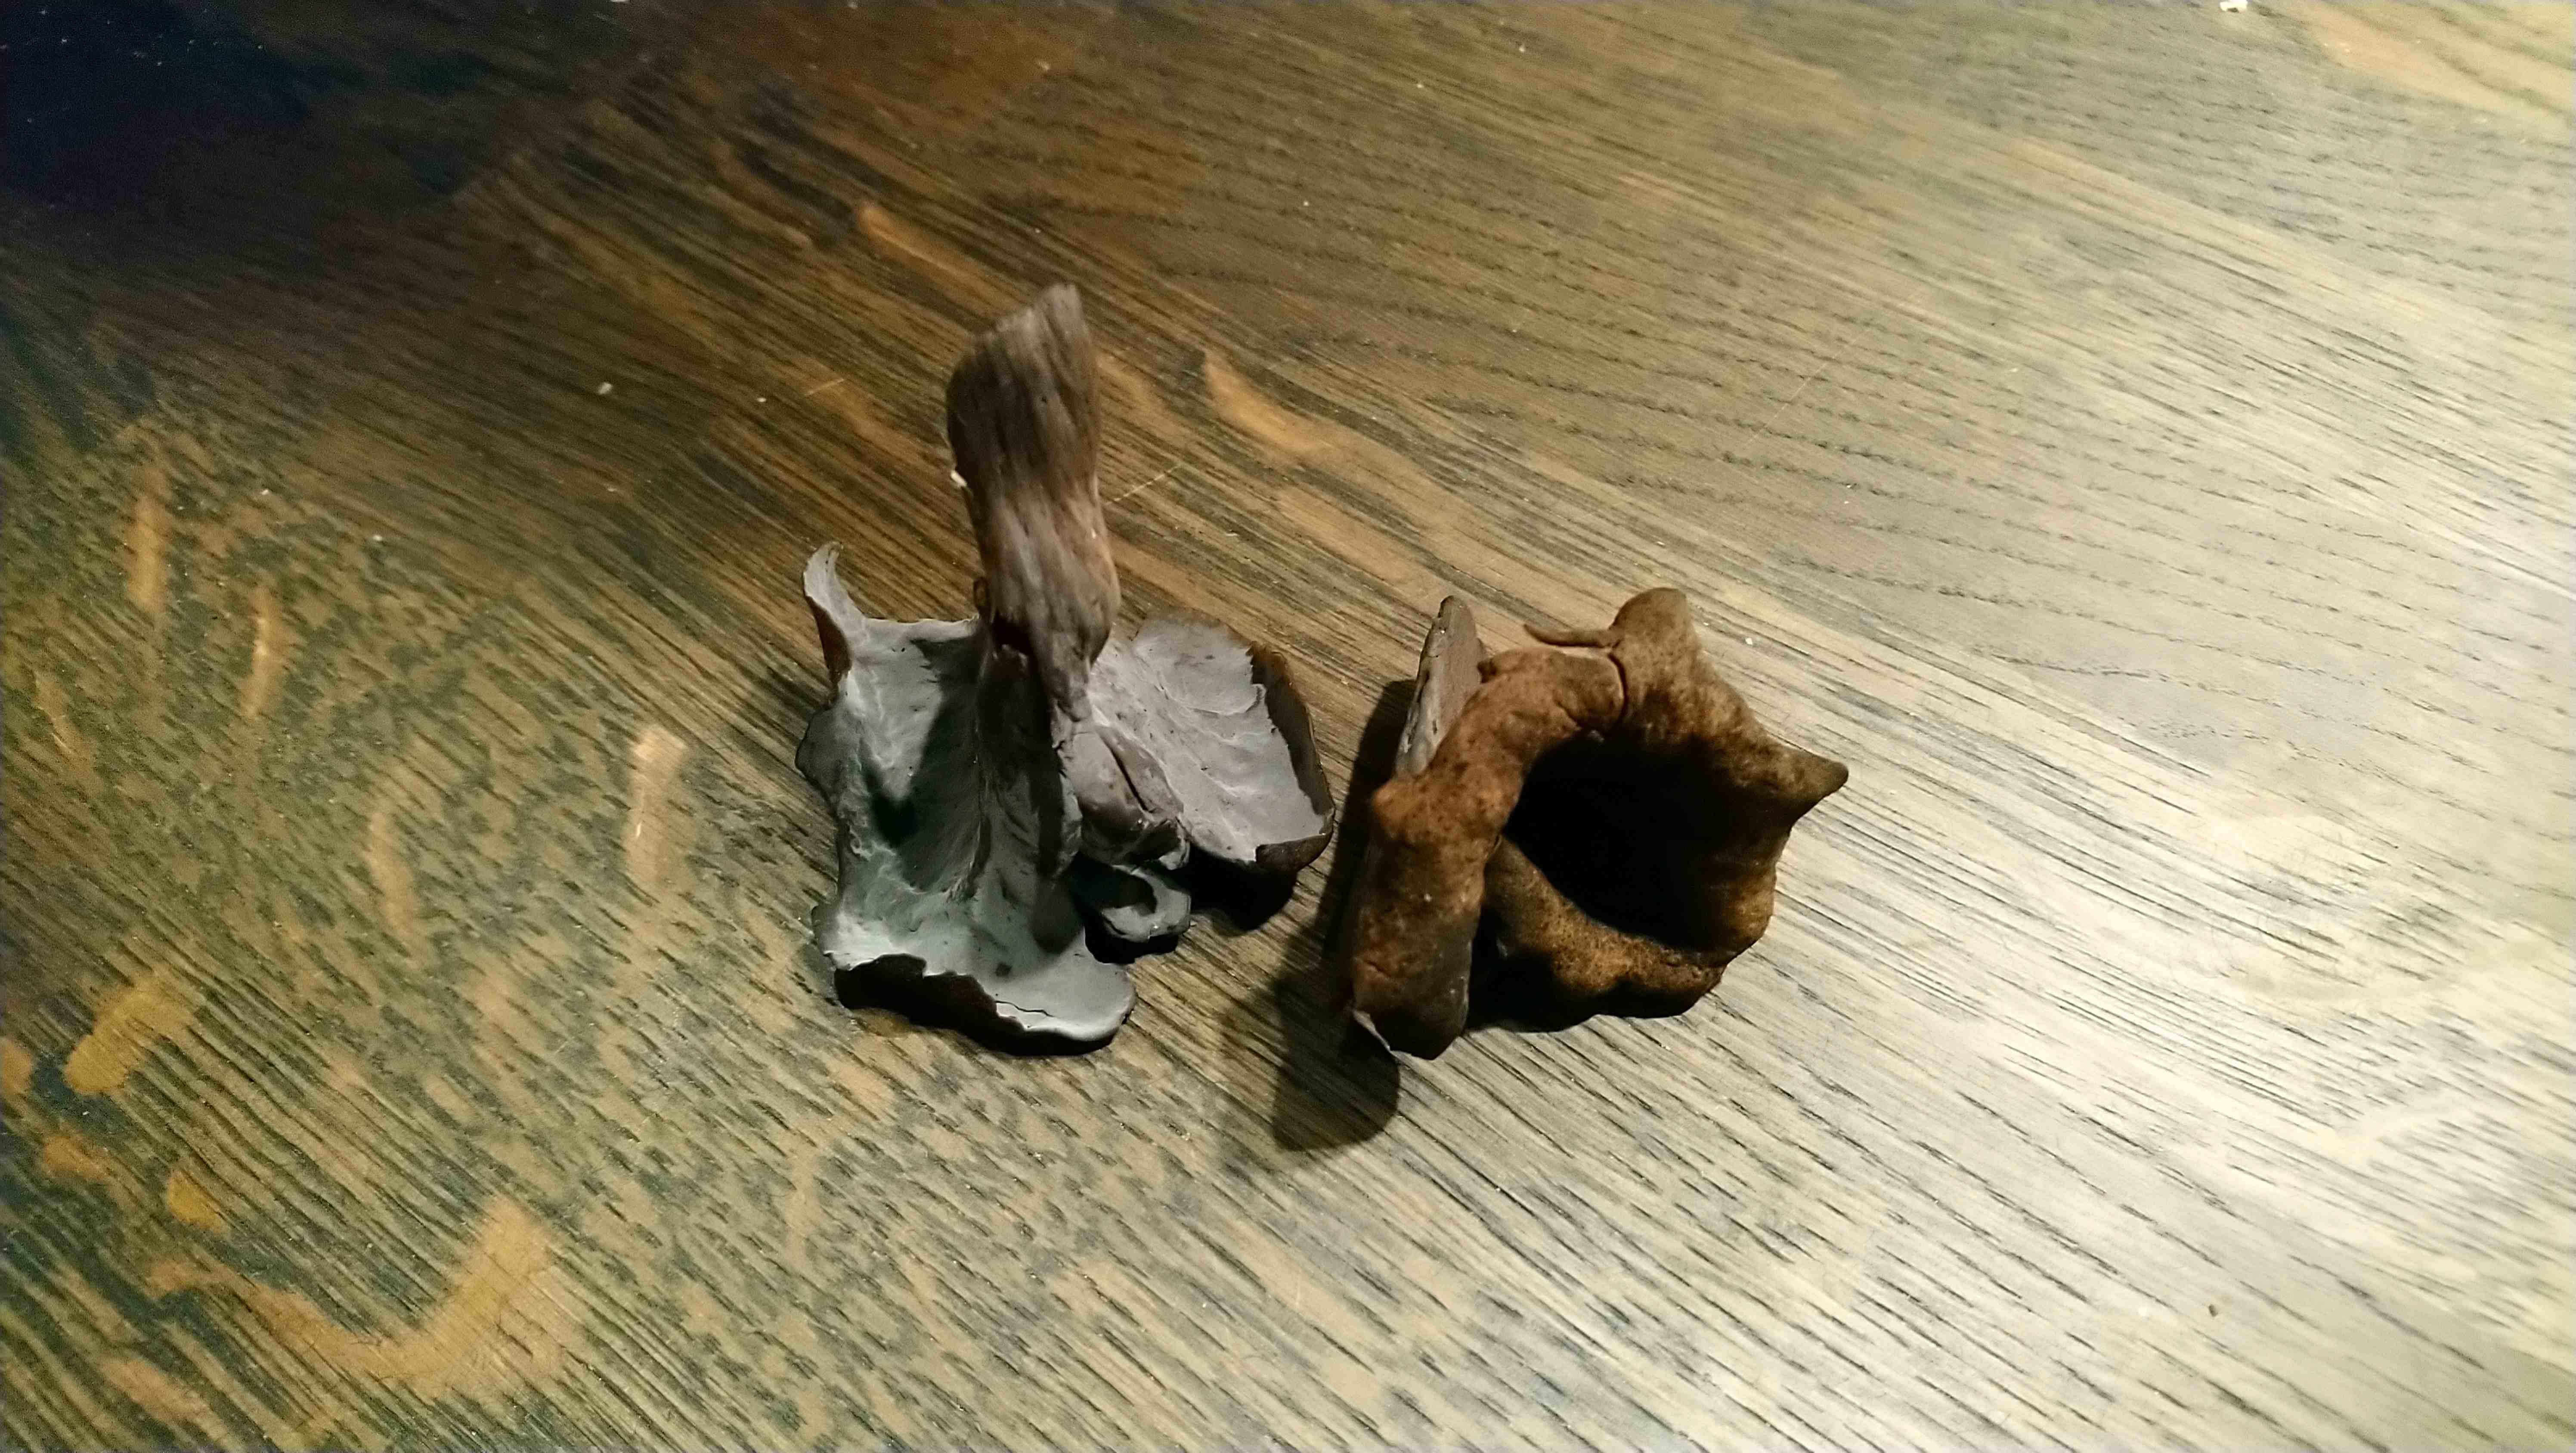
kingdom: Fungi
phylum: Basidiomycota
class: Agaricomycetes
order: Cantharellales
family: Hydnaceae
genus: Craterellus
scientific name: Craterellus cornucopioides
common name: trompetsvamp
